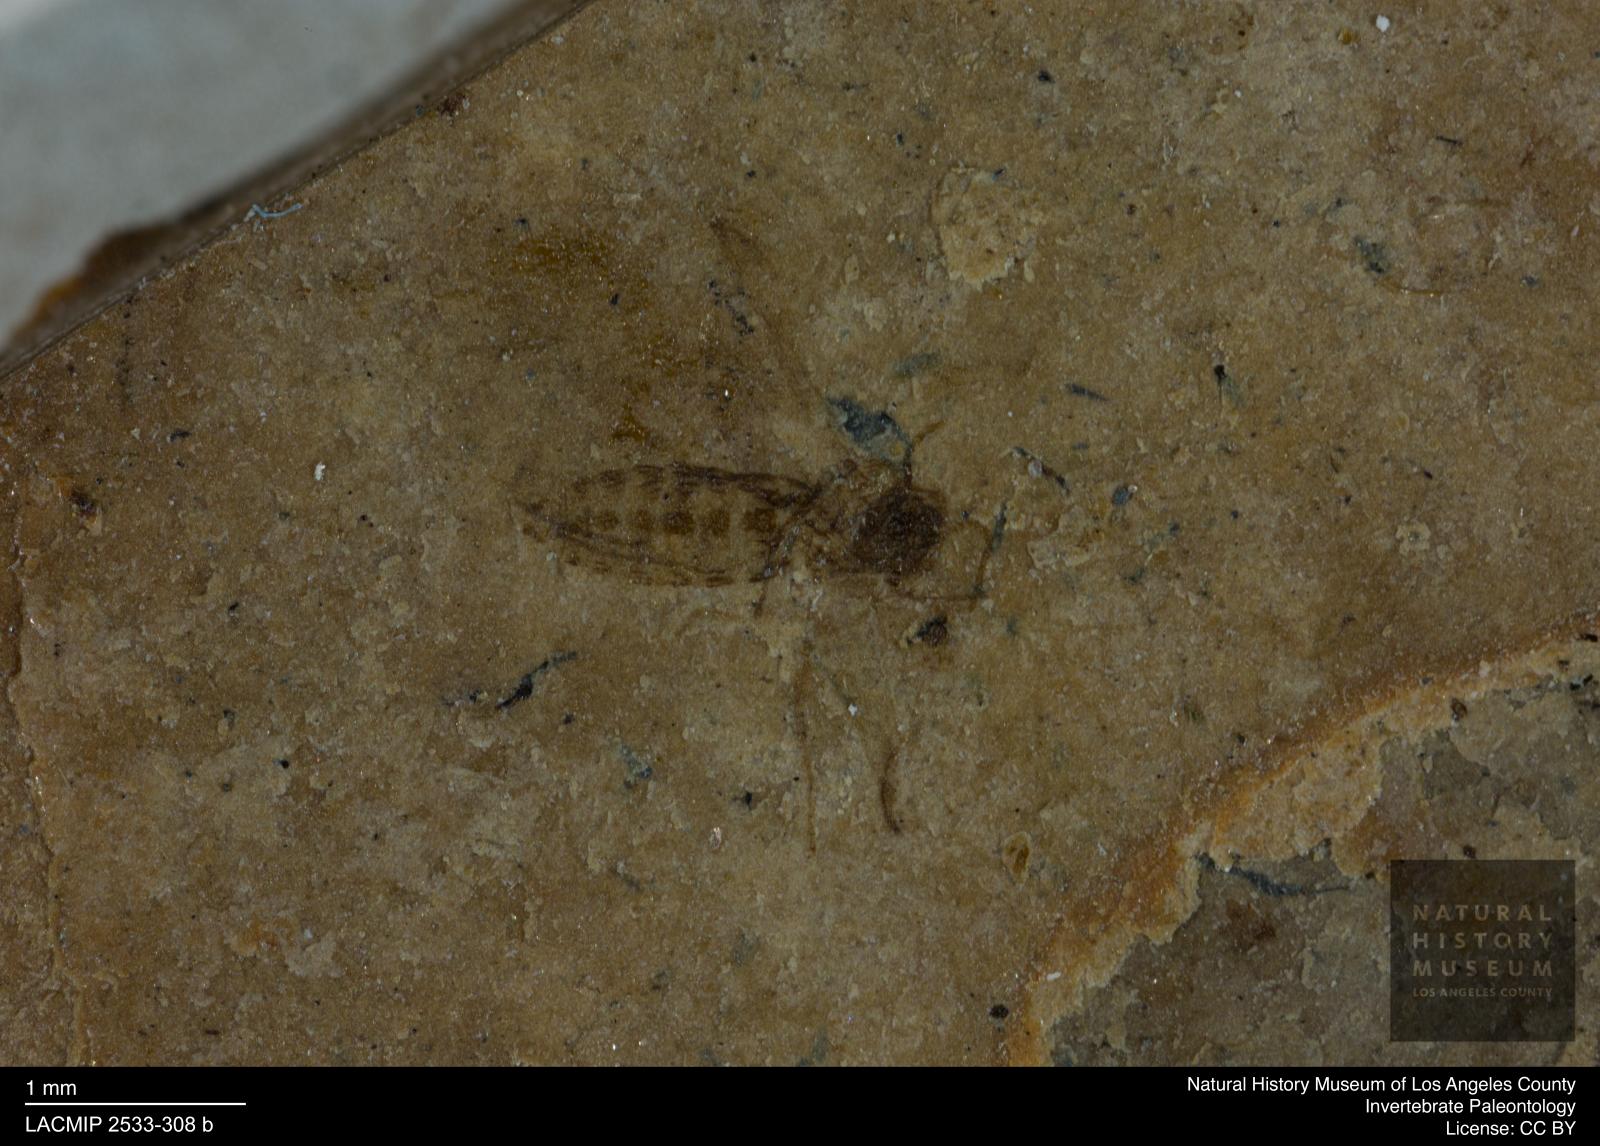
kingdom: Animalia
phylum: Arthropoda
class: Insecta
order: Diptera
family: Ceratopogonidae
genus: Atrichopogon
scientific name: Atrichopogon brunnescens
